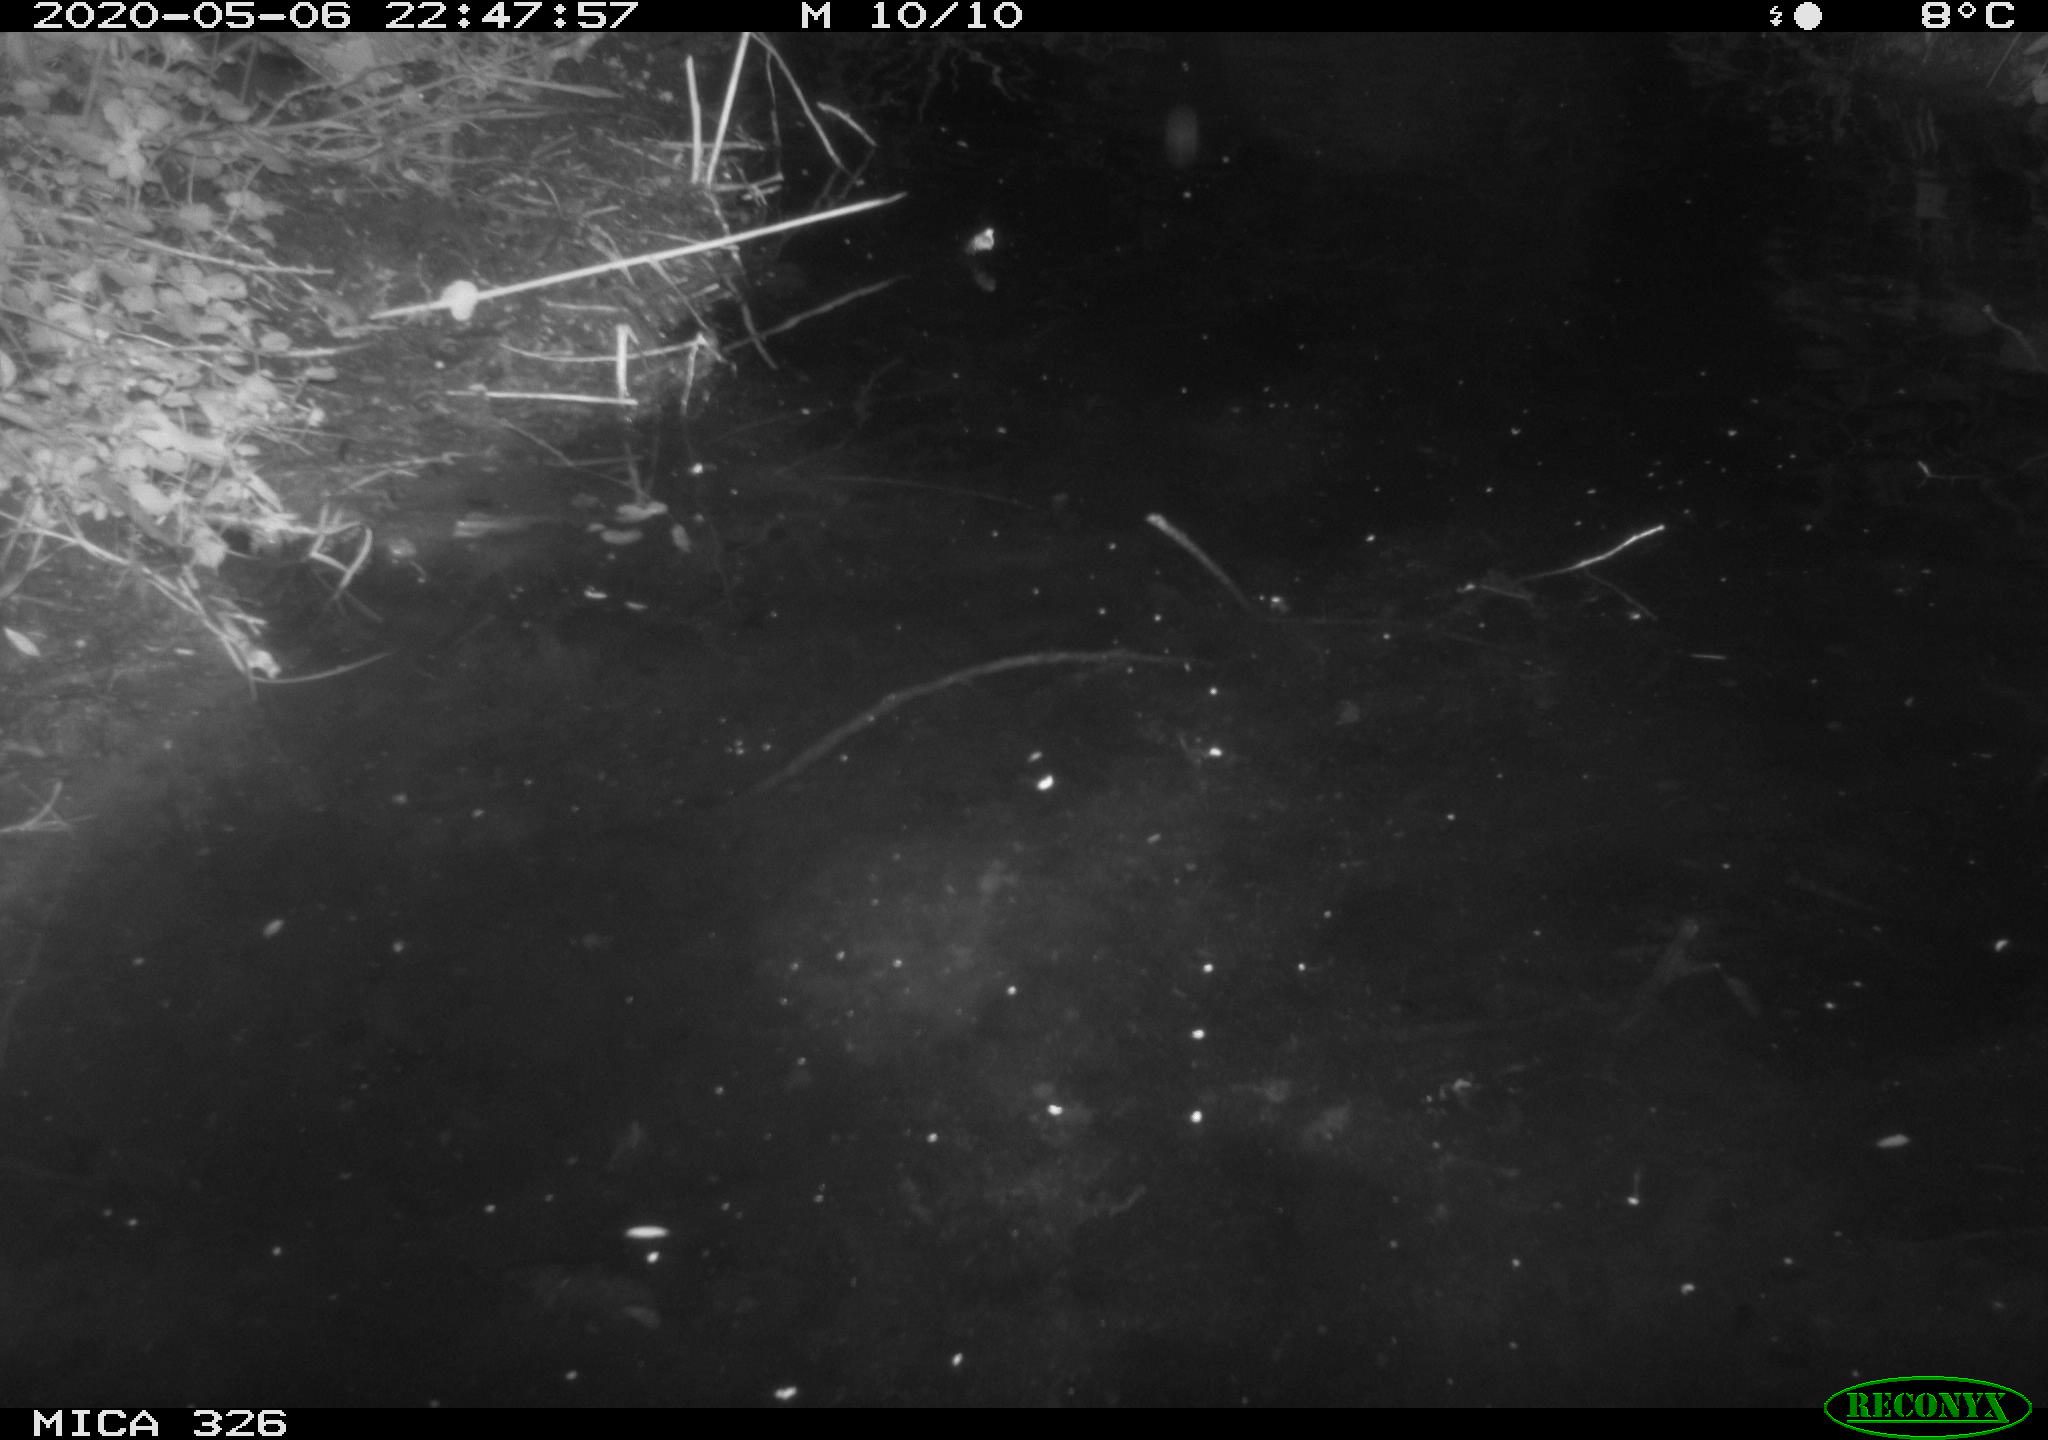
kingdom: Animalia
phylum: Chordata
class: Mammalia
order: Rodentia
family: Myocastoridae
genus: Myocastor
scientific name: Myocastor coypus
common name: Coypu
